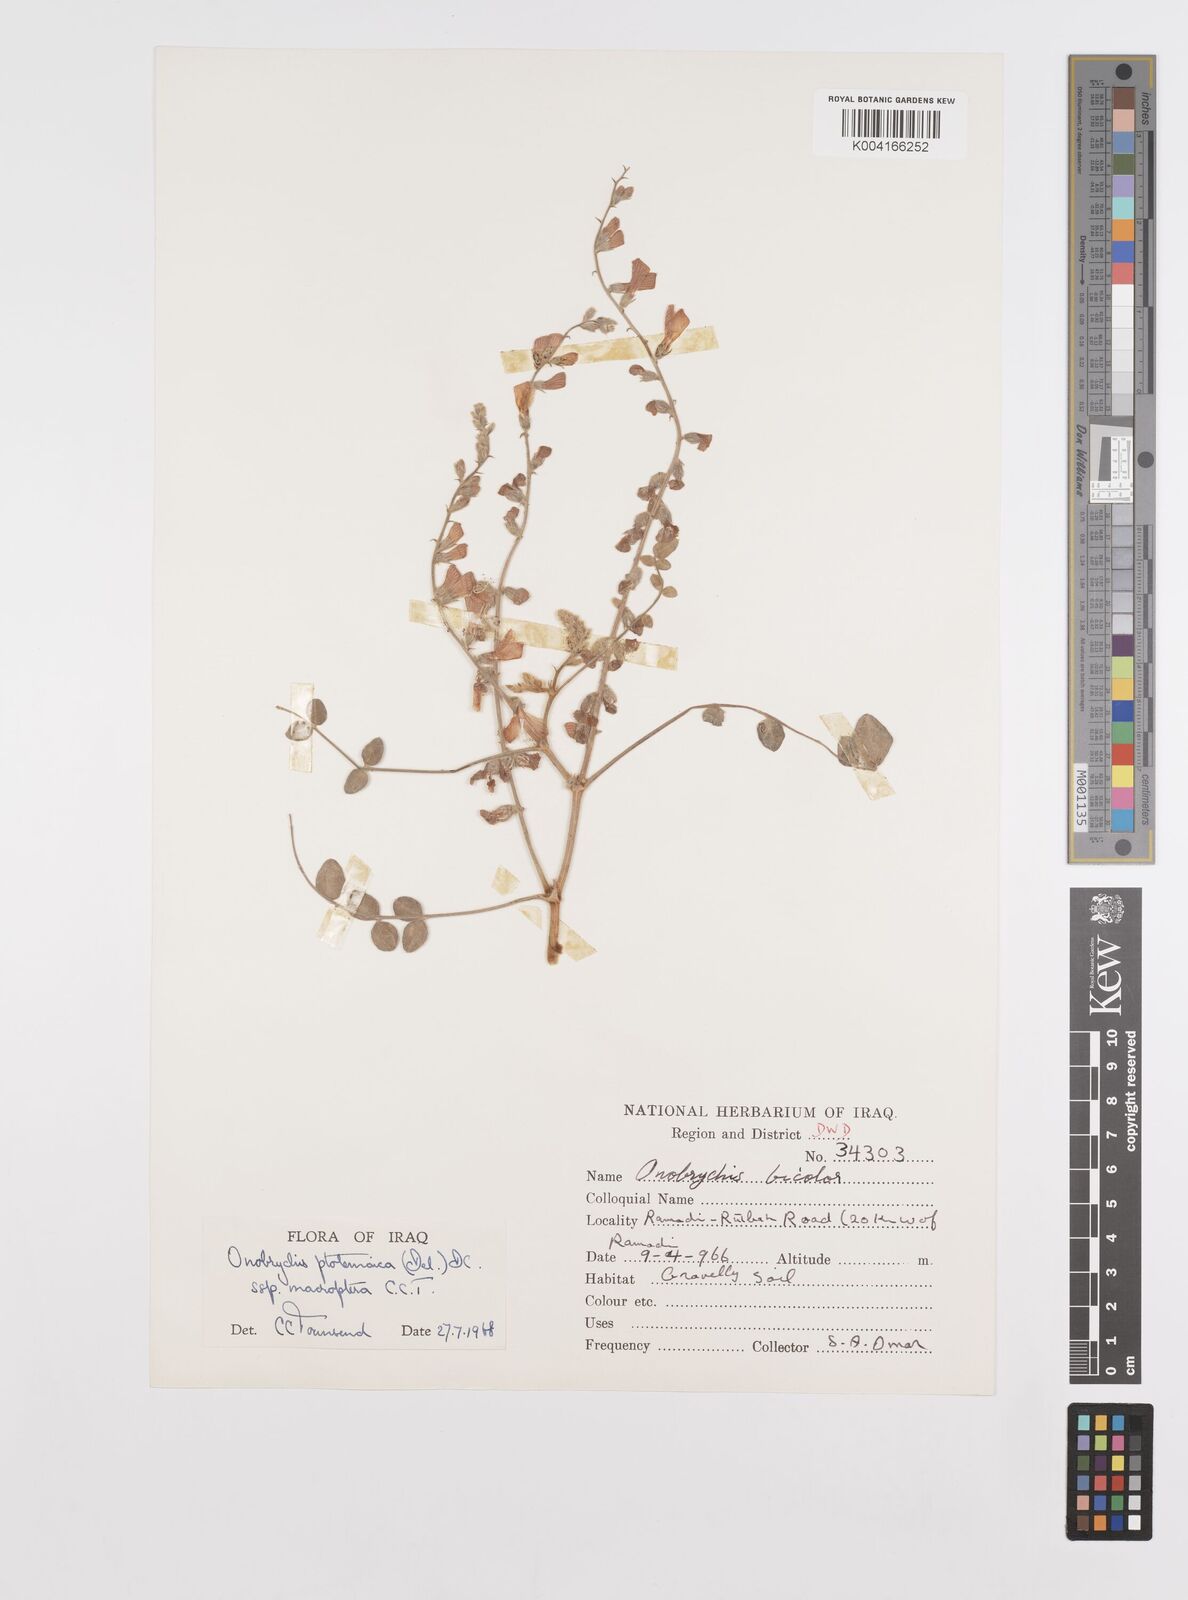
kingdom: Plantae
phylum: Tracheophyta
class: Magnoliopsida
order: Fabales
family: Fabaceae
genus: Onobrychis
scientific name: Onobrychis ptolemaica
